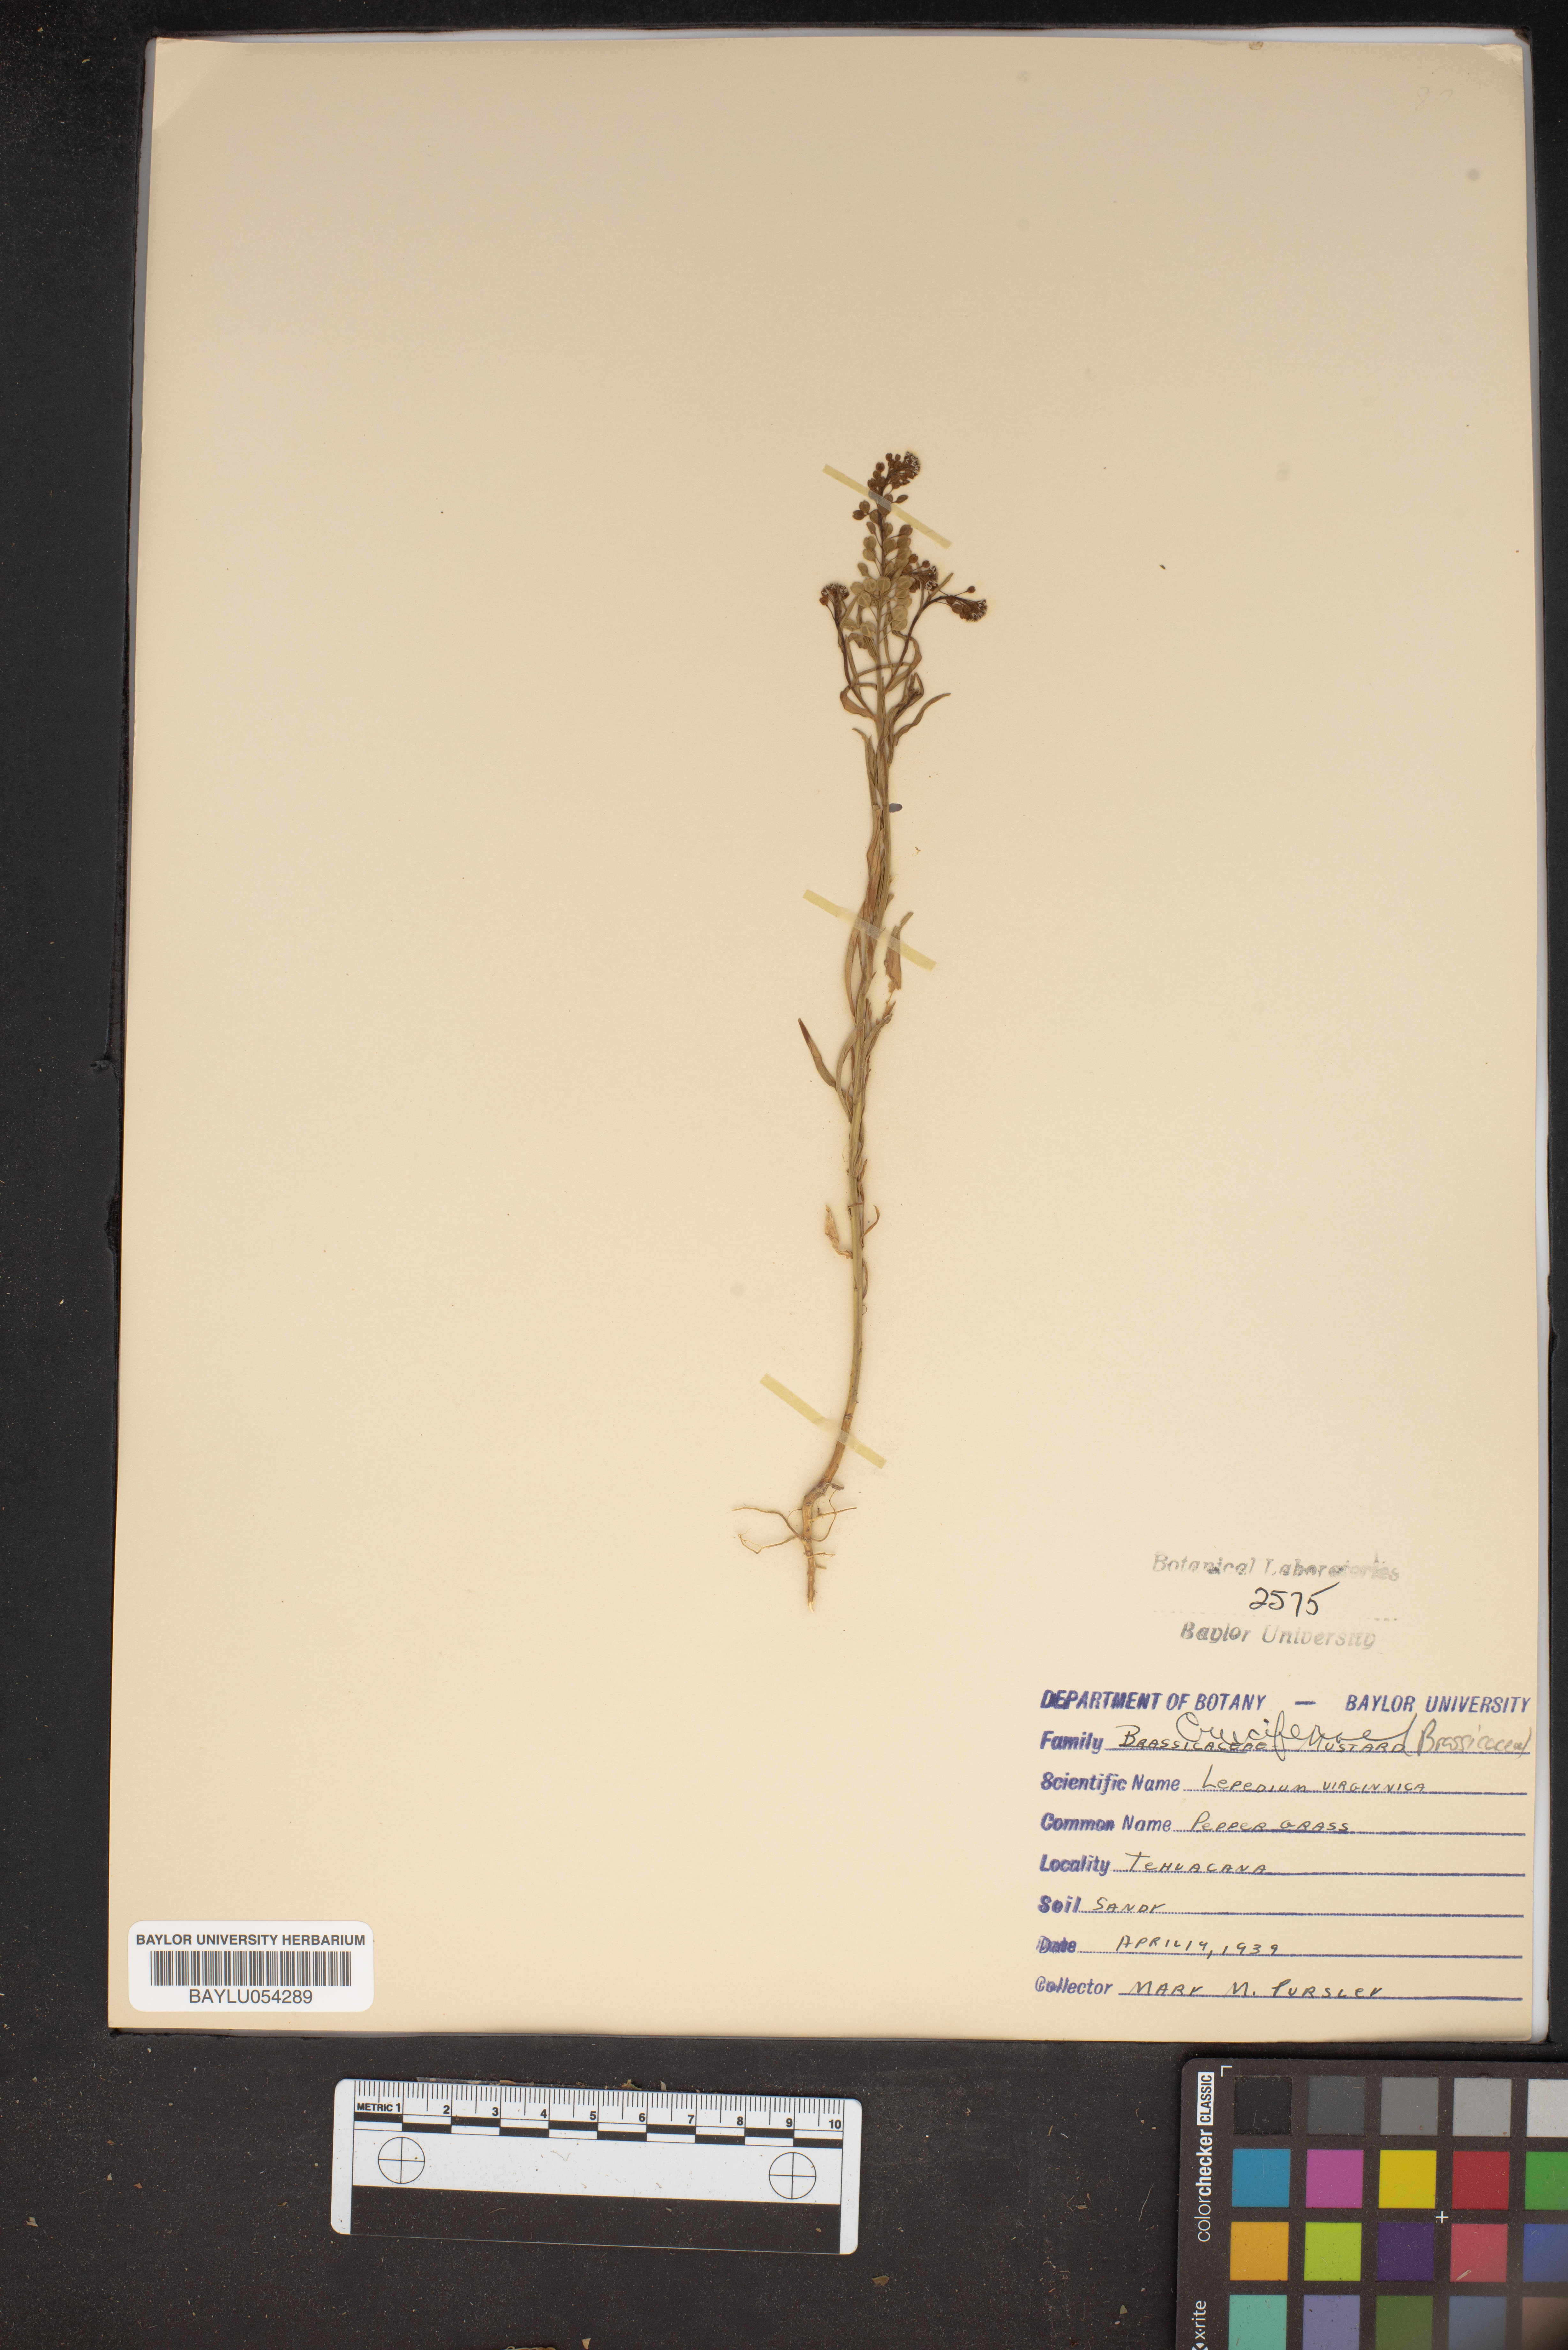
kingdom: Plantae
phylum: Tracheophyta
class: Magnoliopsida
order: Brassicales
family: Brassicaceae
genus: Lepidium
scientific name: Lepidium virginicum
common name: Least pepperwort
